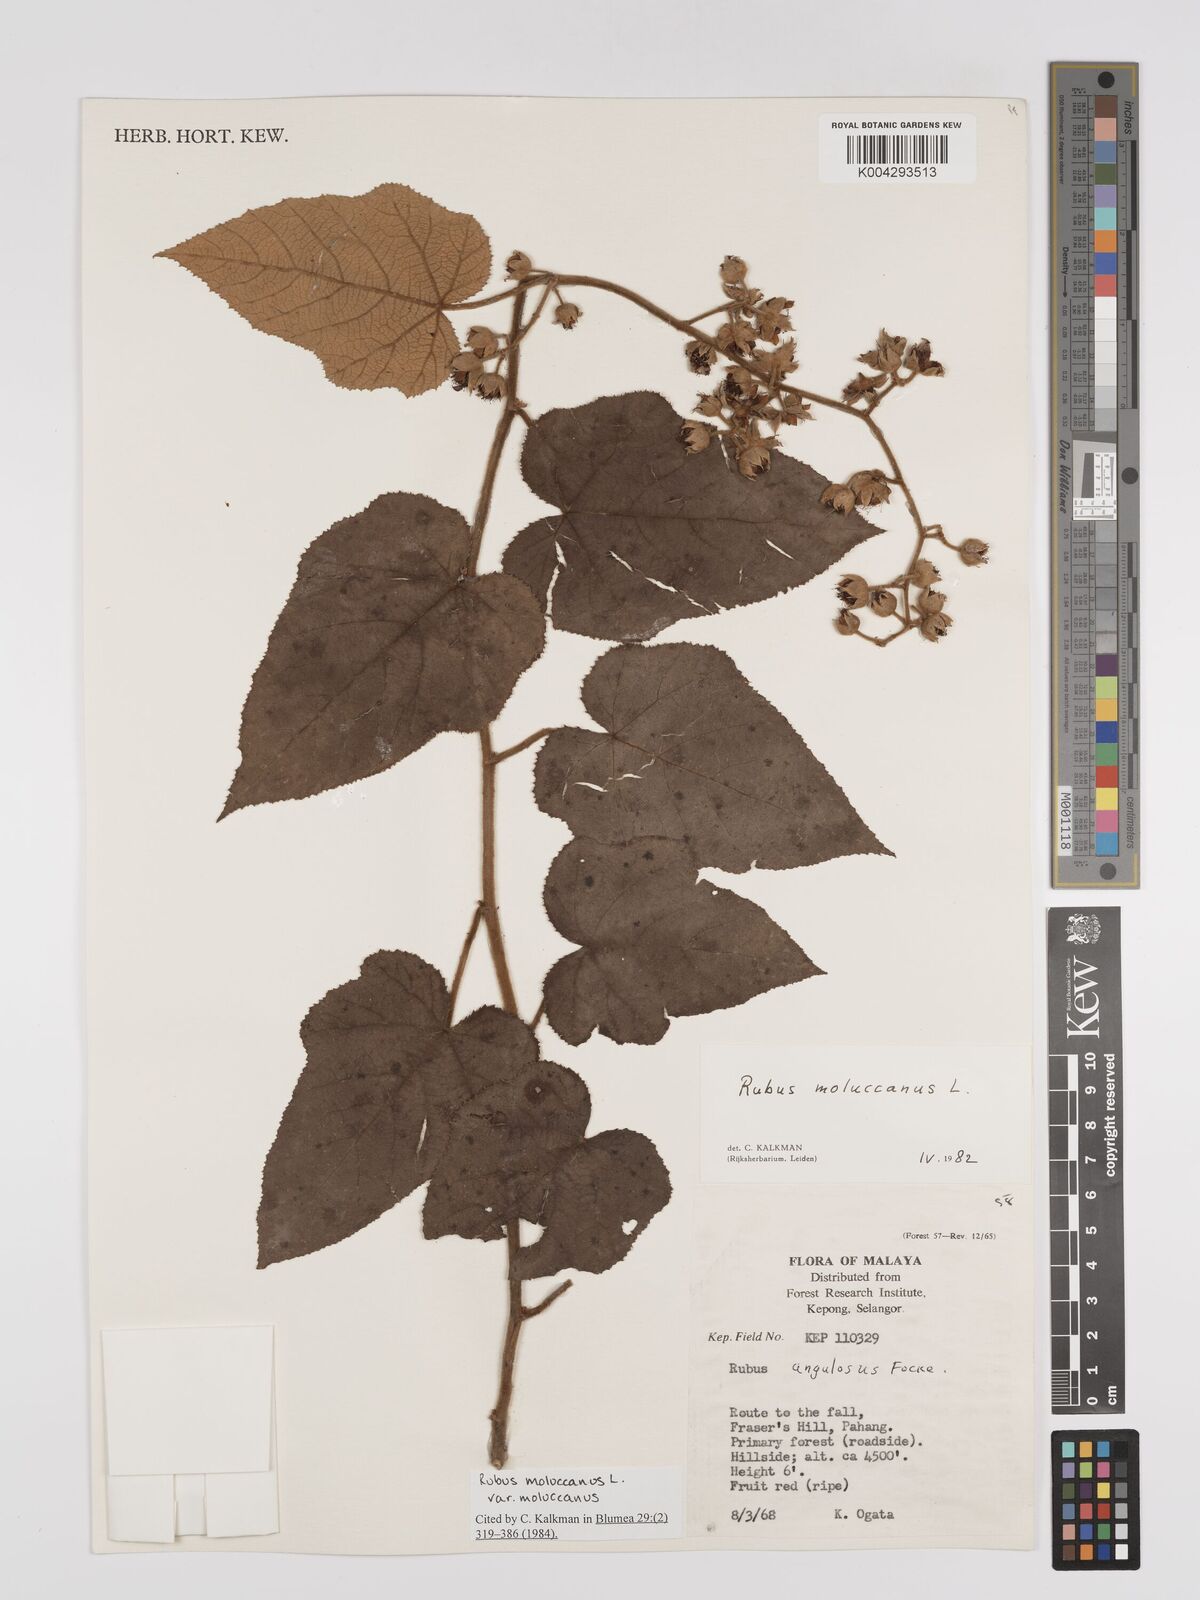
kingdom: Plantae
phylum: Tracheophyta
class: Magnoliopsida
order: Rosales
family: Rosaceae
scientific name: Rosaceae
